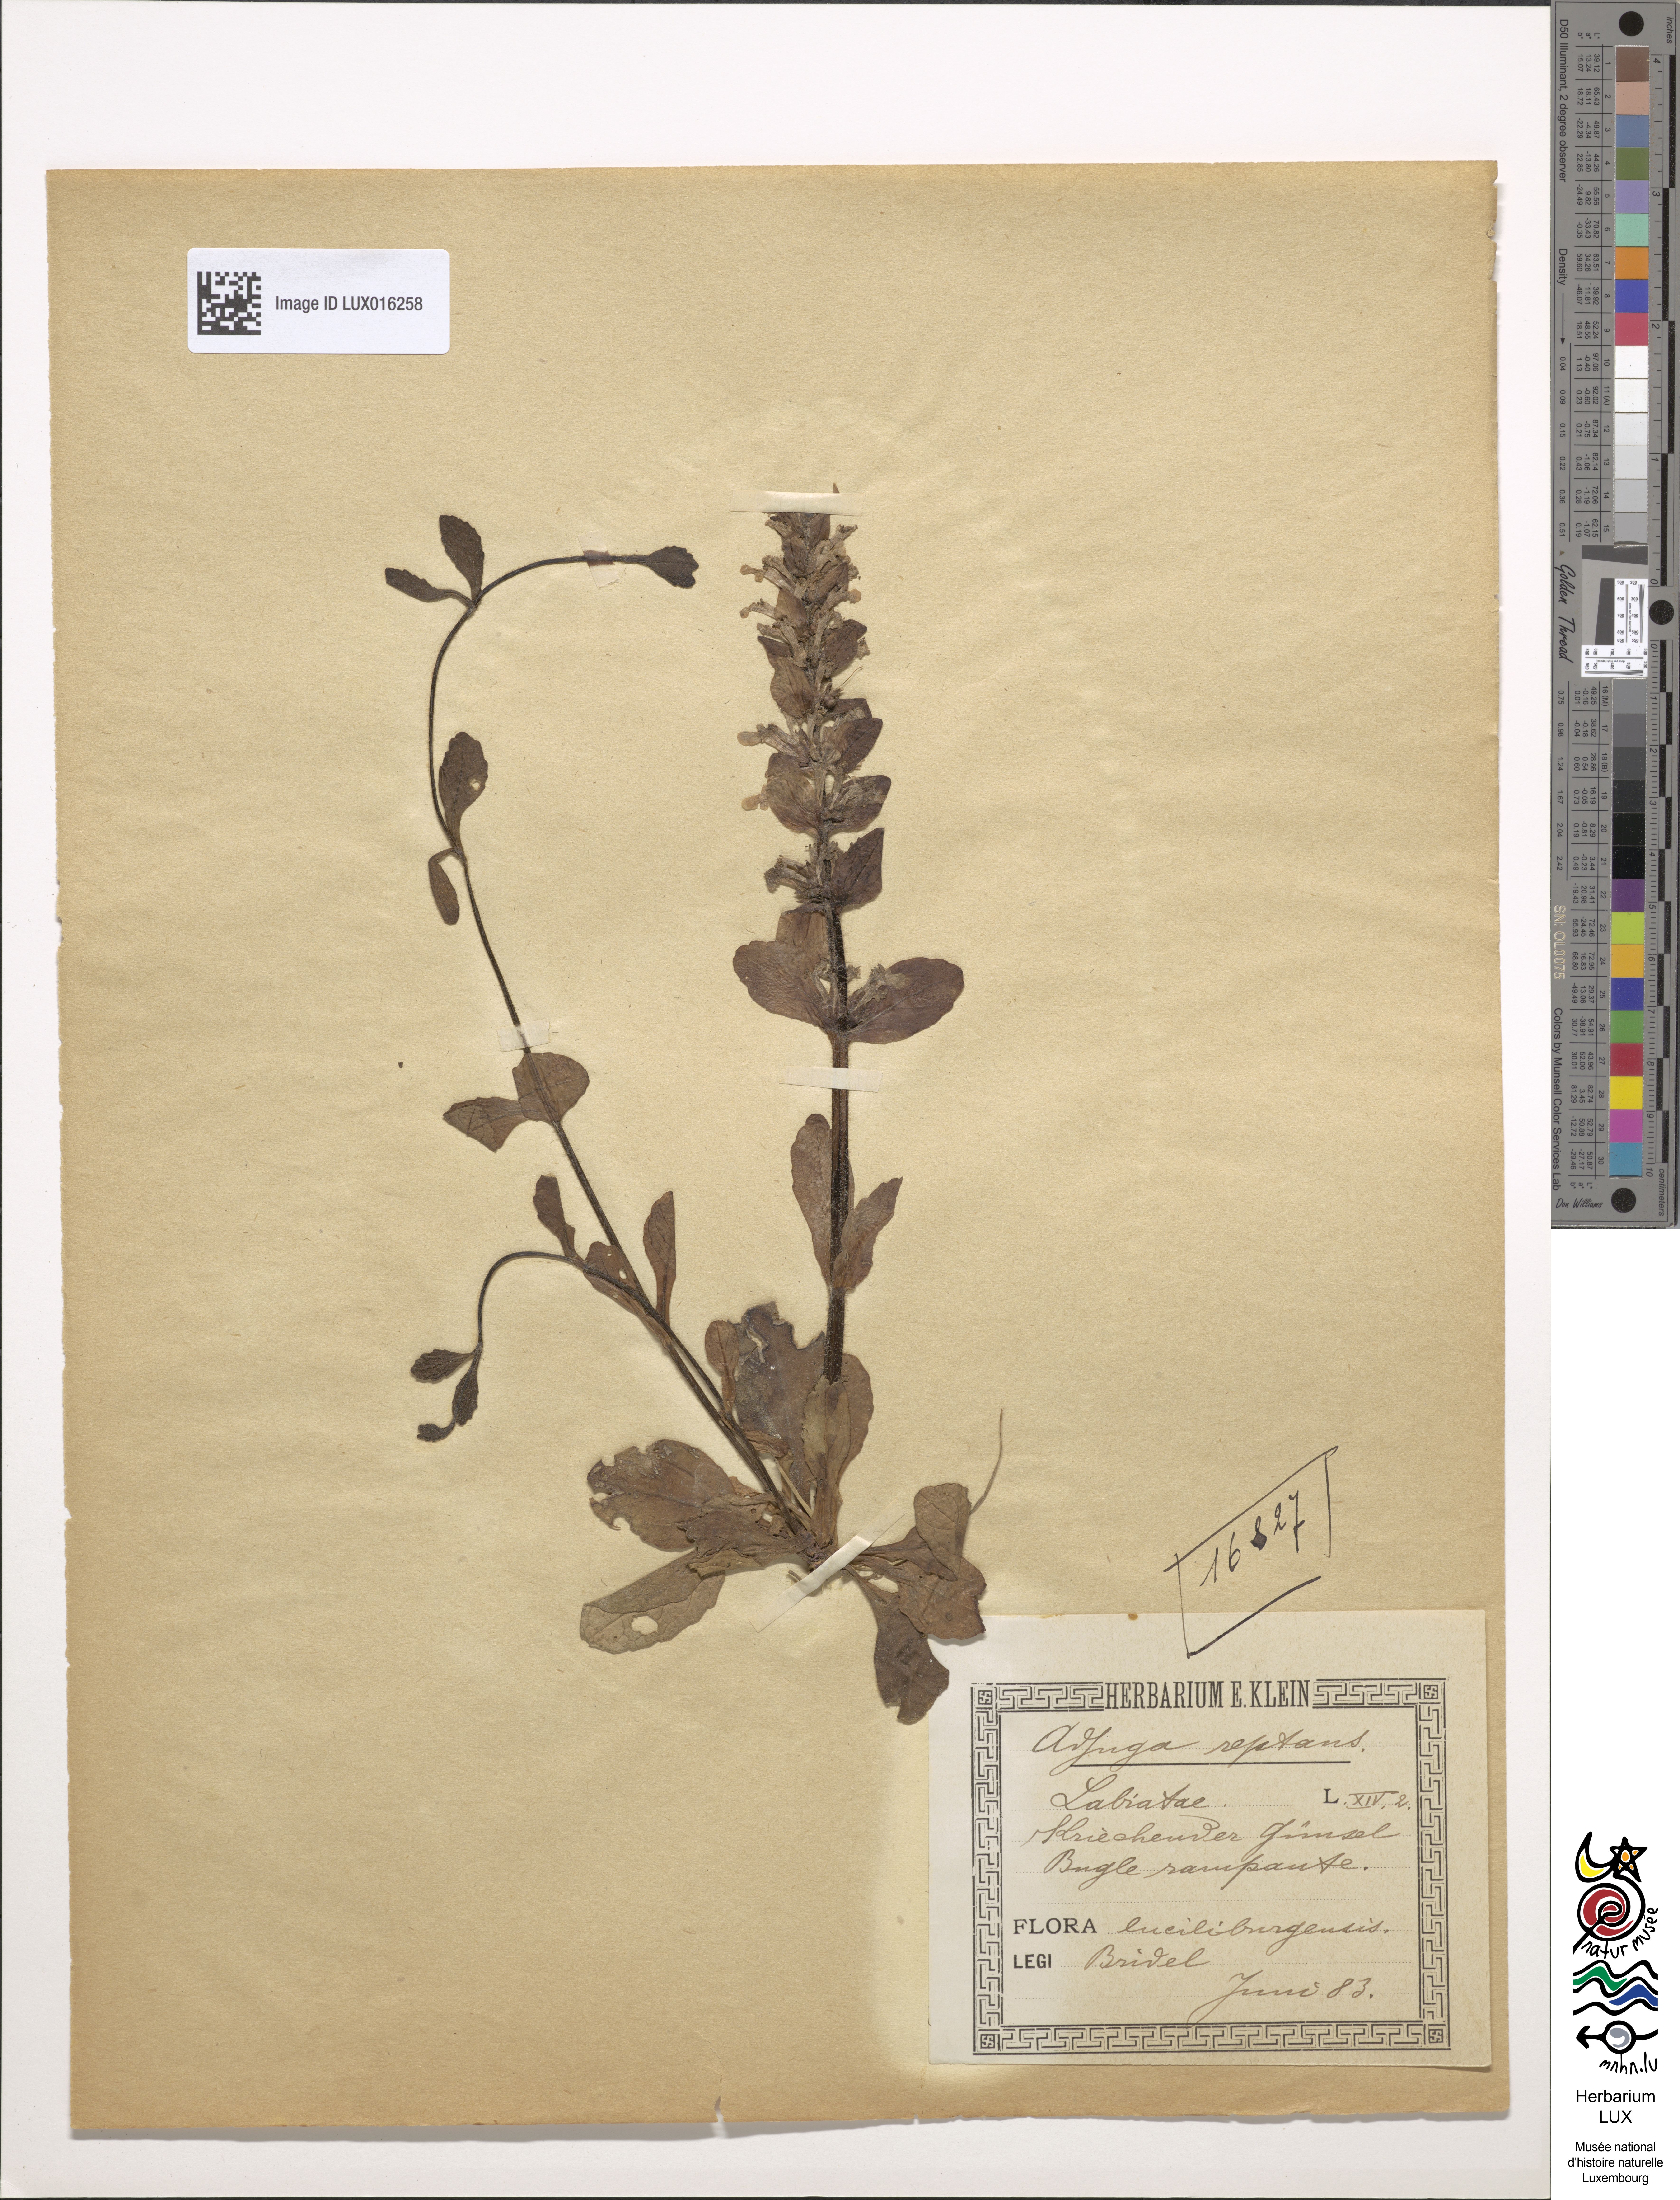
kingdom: Plantae
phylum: Tracheophyta
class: Magnoliopsida
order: Lamiales
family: Lamiaceae
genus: Ajuga
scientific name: Ajuga reptans
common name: Bugle
